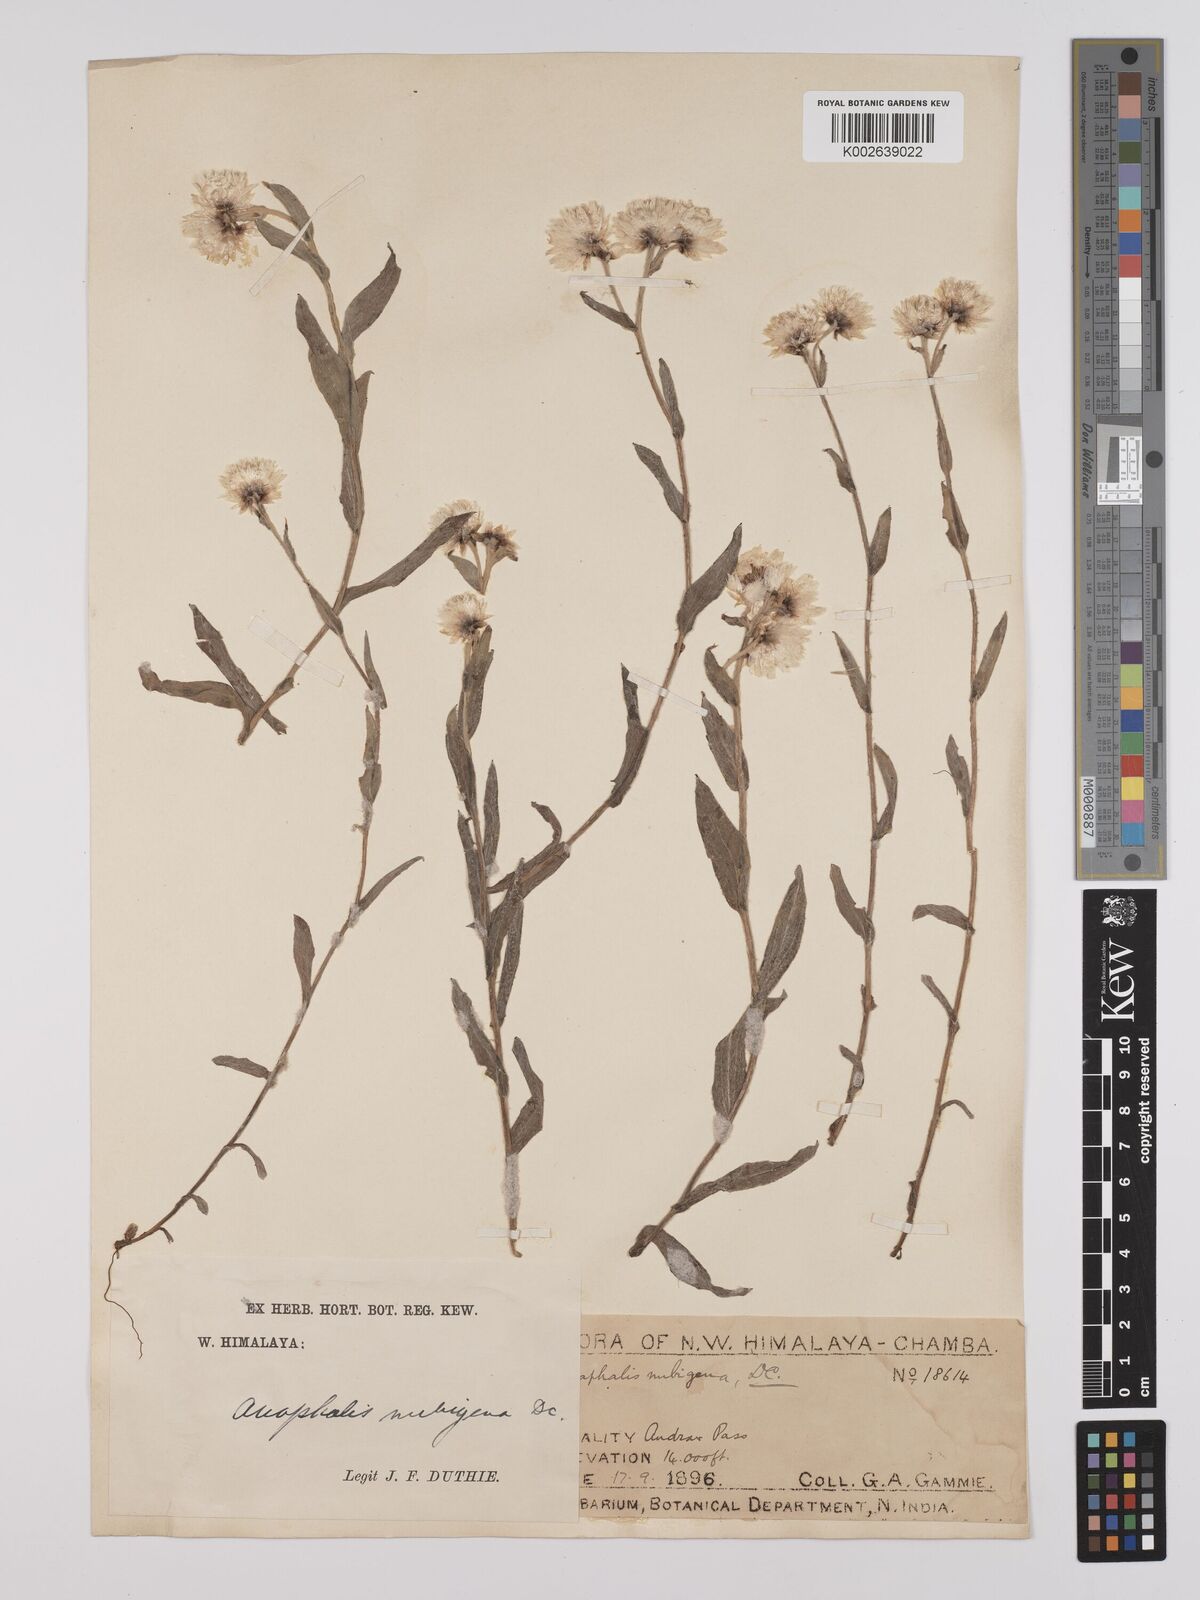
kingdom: Plantae
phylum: Tracheophyta
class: Magnoliopsida
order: Asterales
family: Asteraceae
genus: Anaphalis
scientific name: Anaphalis nepalensis
